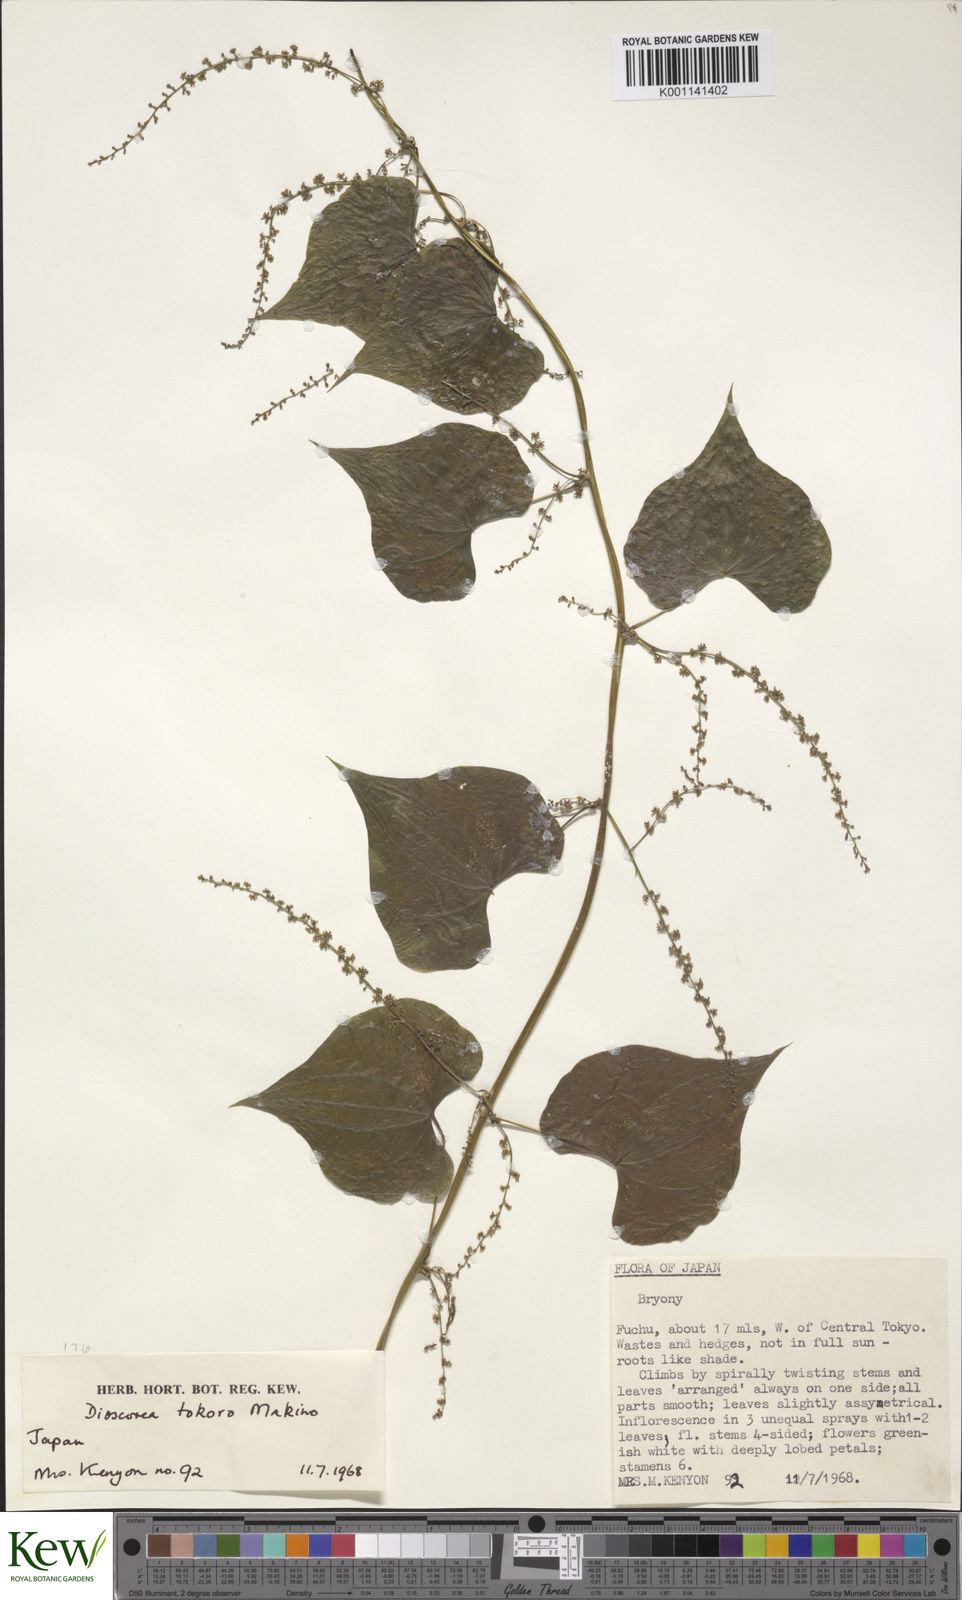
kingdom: Plantae
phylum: Tracheophyta
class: Liliopsida
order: Dioscoreales
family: Dioscoreaceae
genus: Dioscorea
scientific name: Dioscorea tokoro
